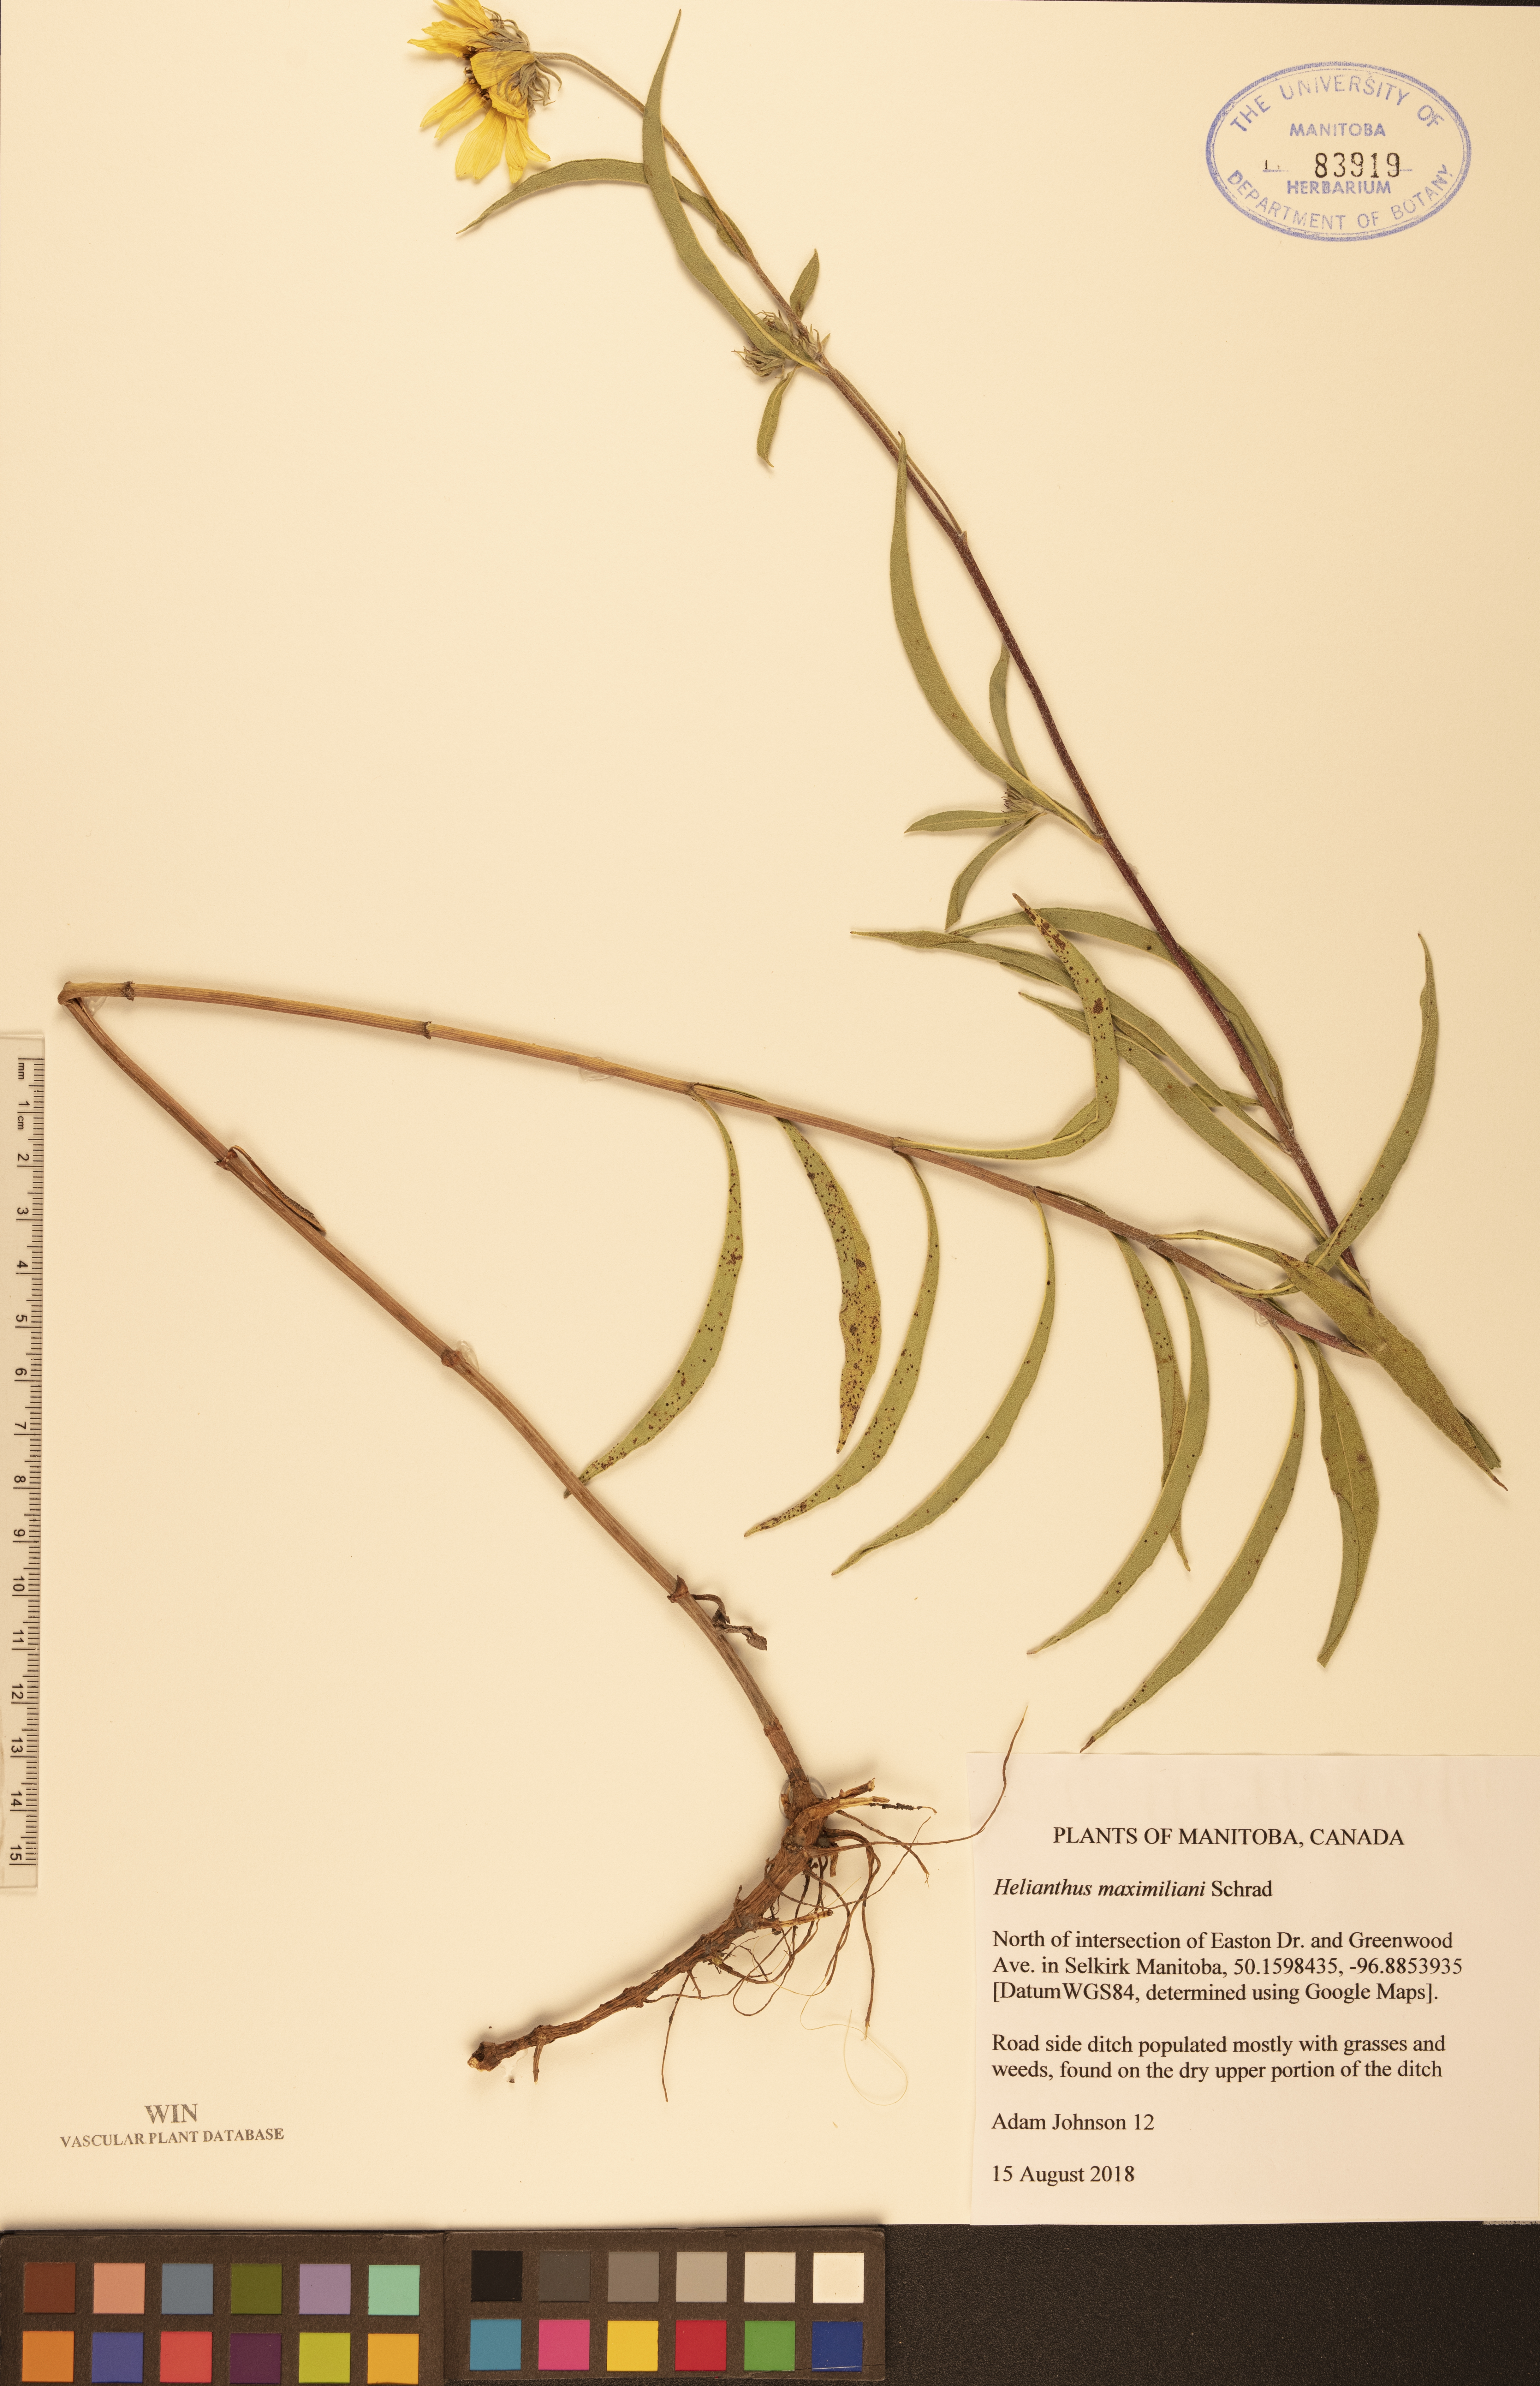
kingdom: Plantae
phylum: Tracheophyta
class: Magnoliopsida
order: Asterales
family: Asteraceae
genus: Helianthus
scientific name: Helianthus maximiliani
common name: Maximilian's sunflower
